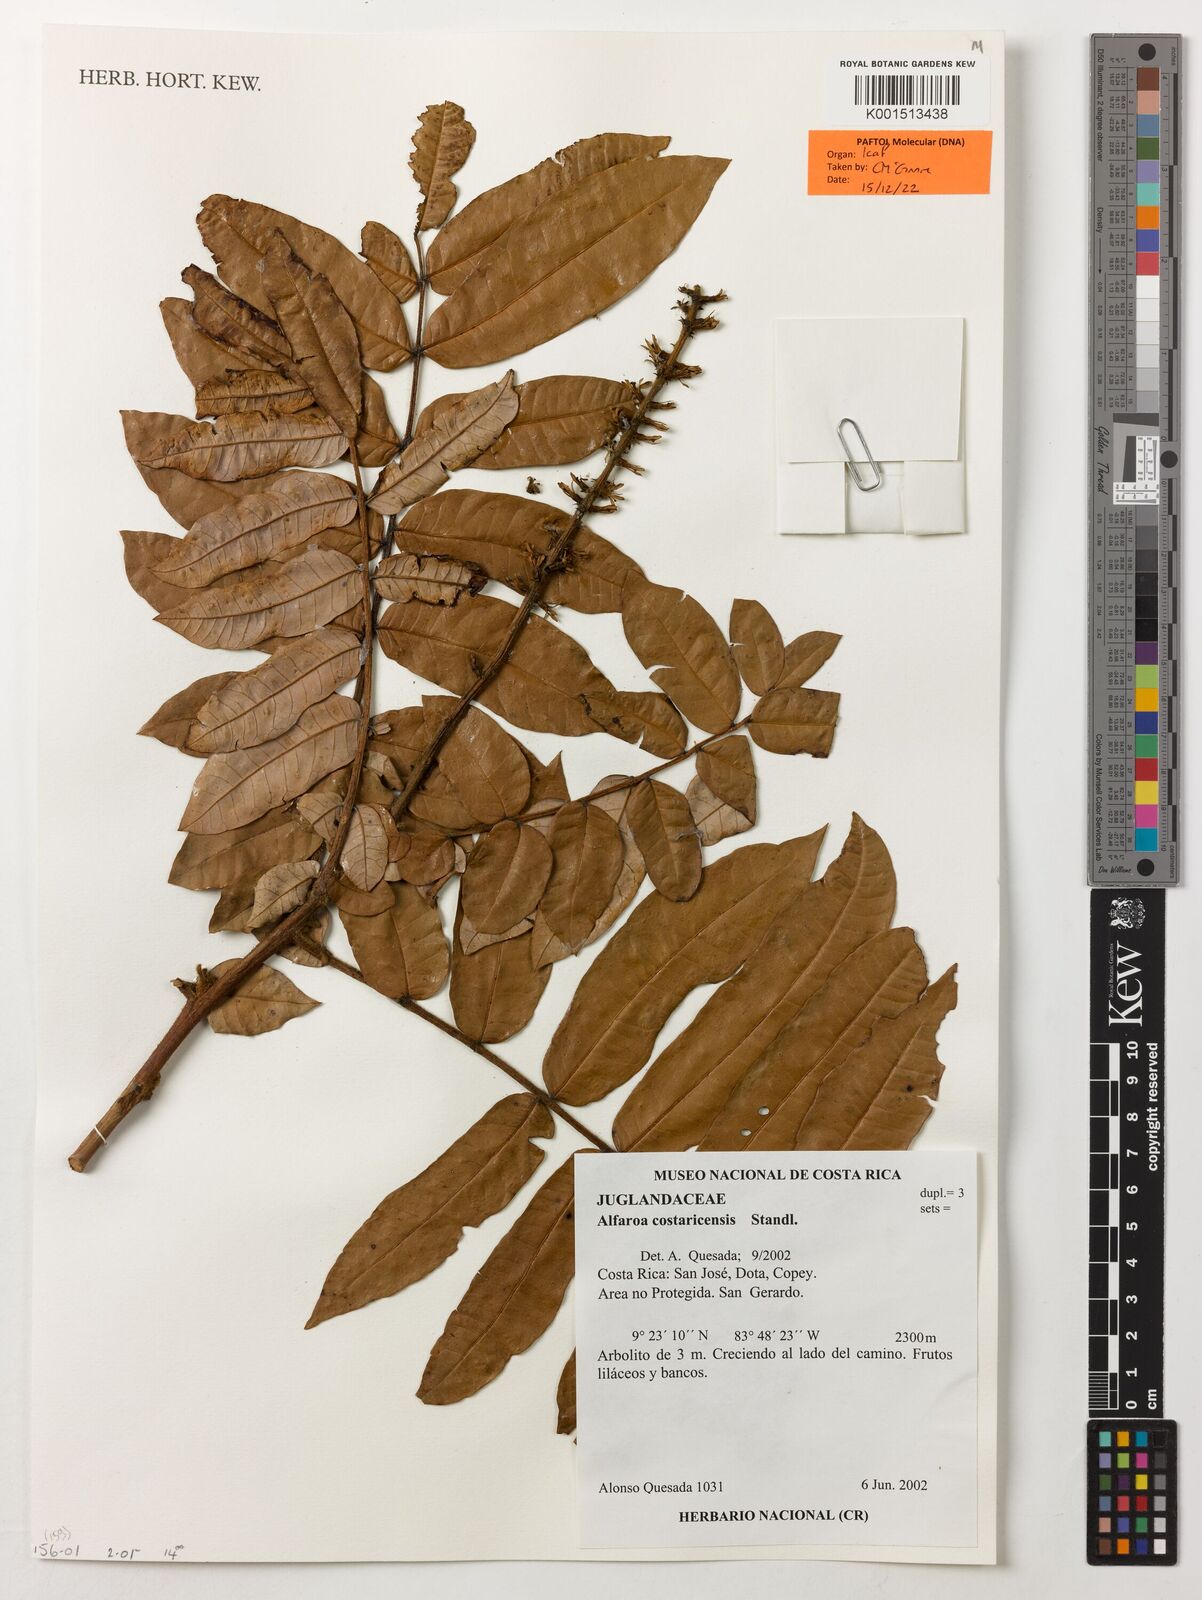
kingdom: Plantae
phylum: Tracheophyta
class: Magnoliopsida
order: Fagales
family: Juglandaceae
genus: Alfaroa
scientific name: Alfaroa costaricensis
